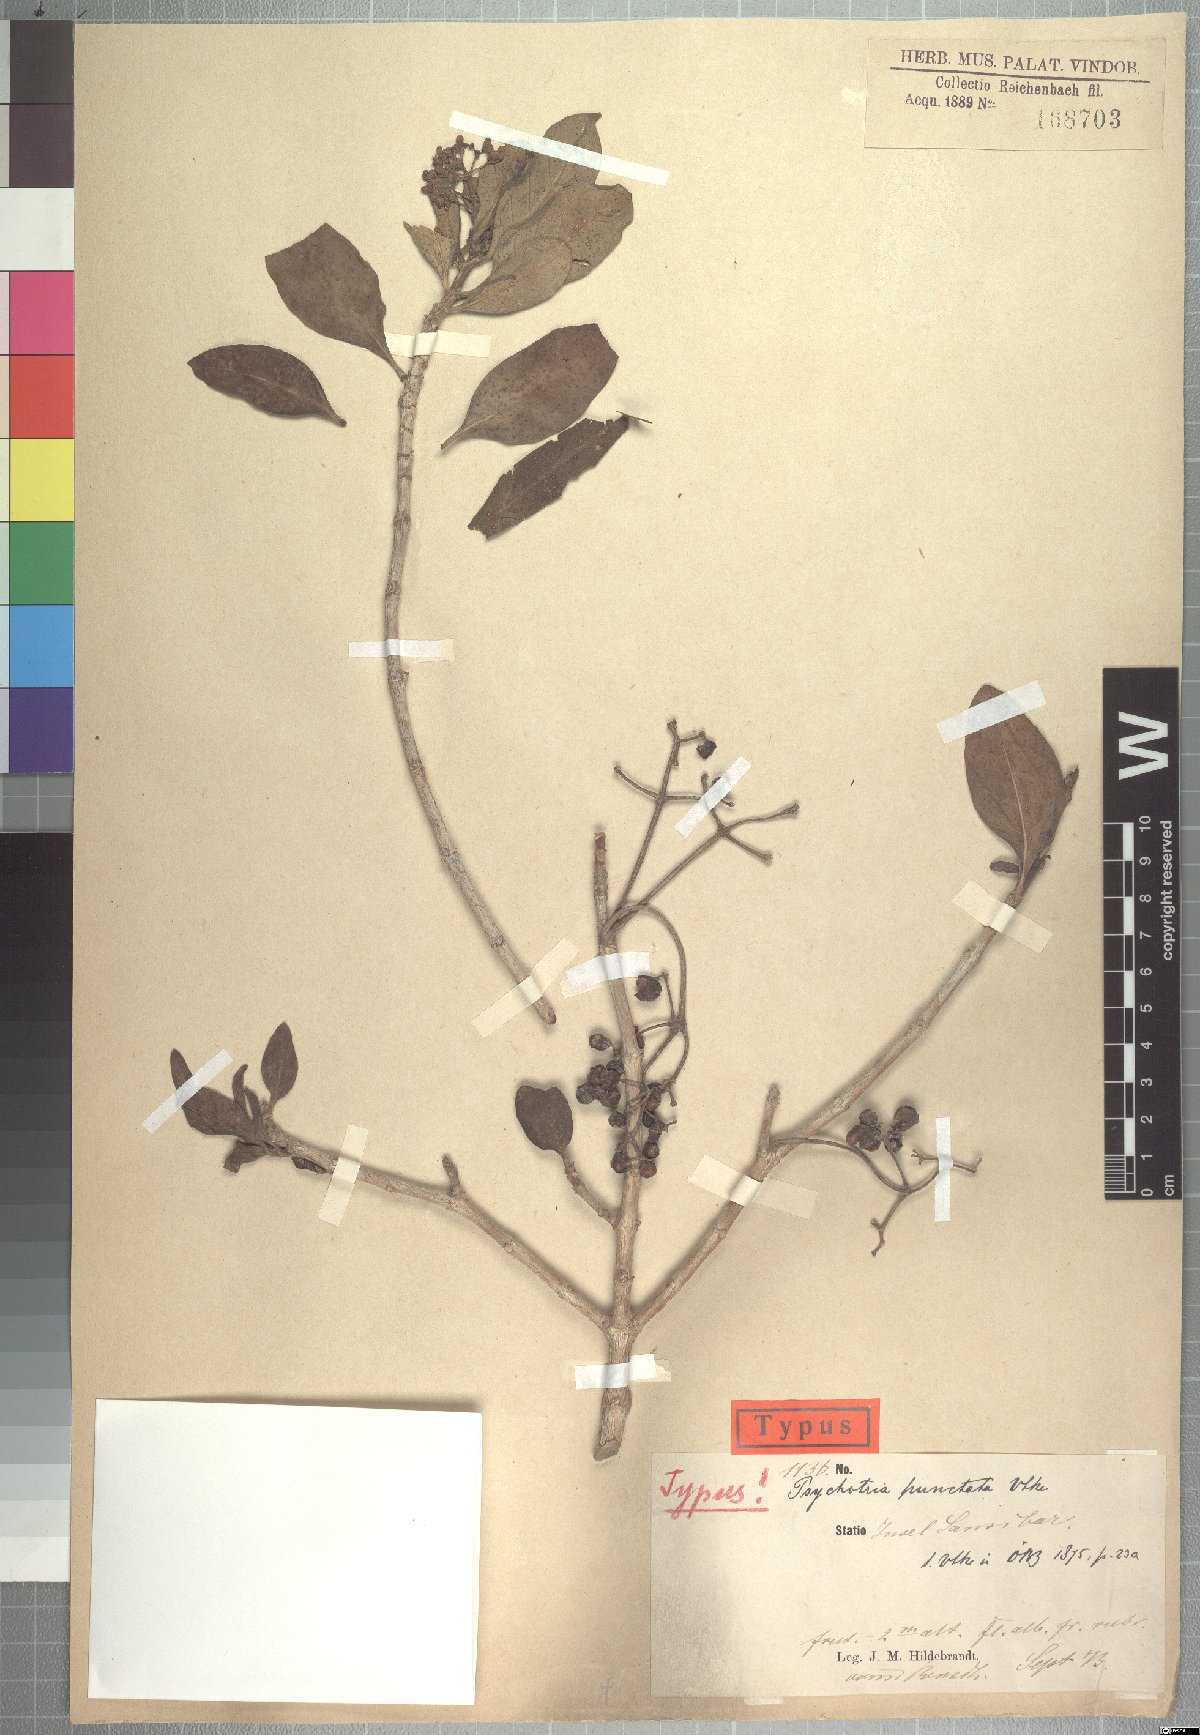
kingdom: Plantae
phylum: Tracheophyta
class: Magnoliopsida
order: Gentianales
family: Rubiaceae
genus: Psychotria
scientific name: Psychotria punctata
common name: Dotted wild coffee
